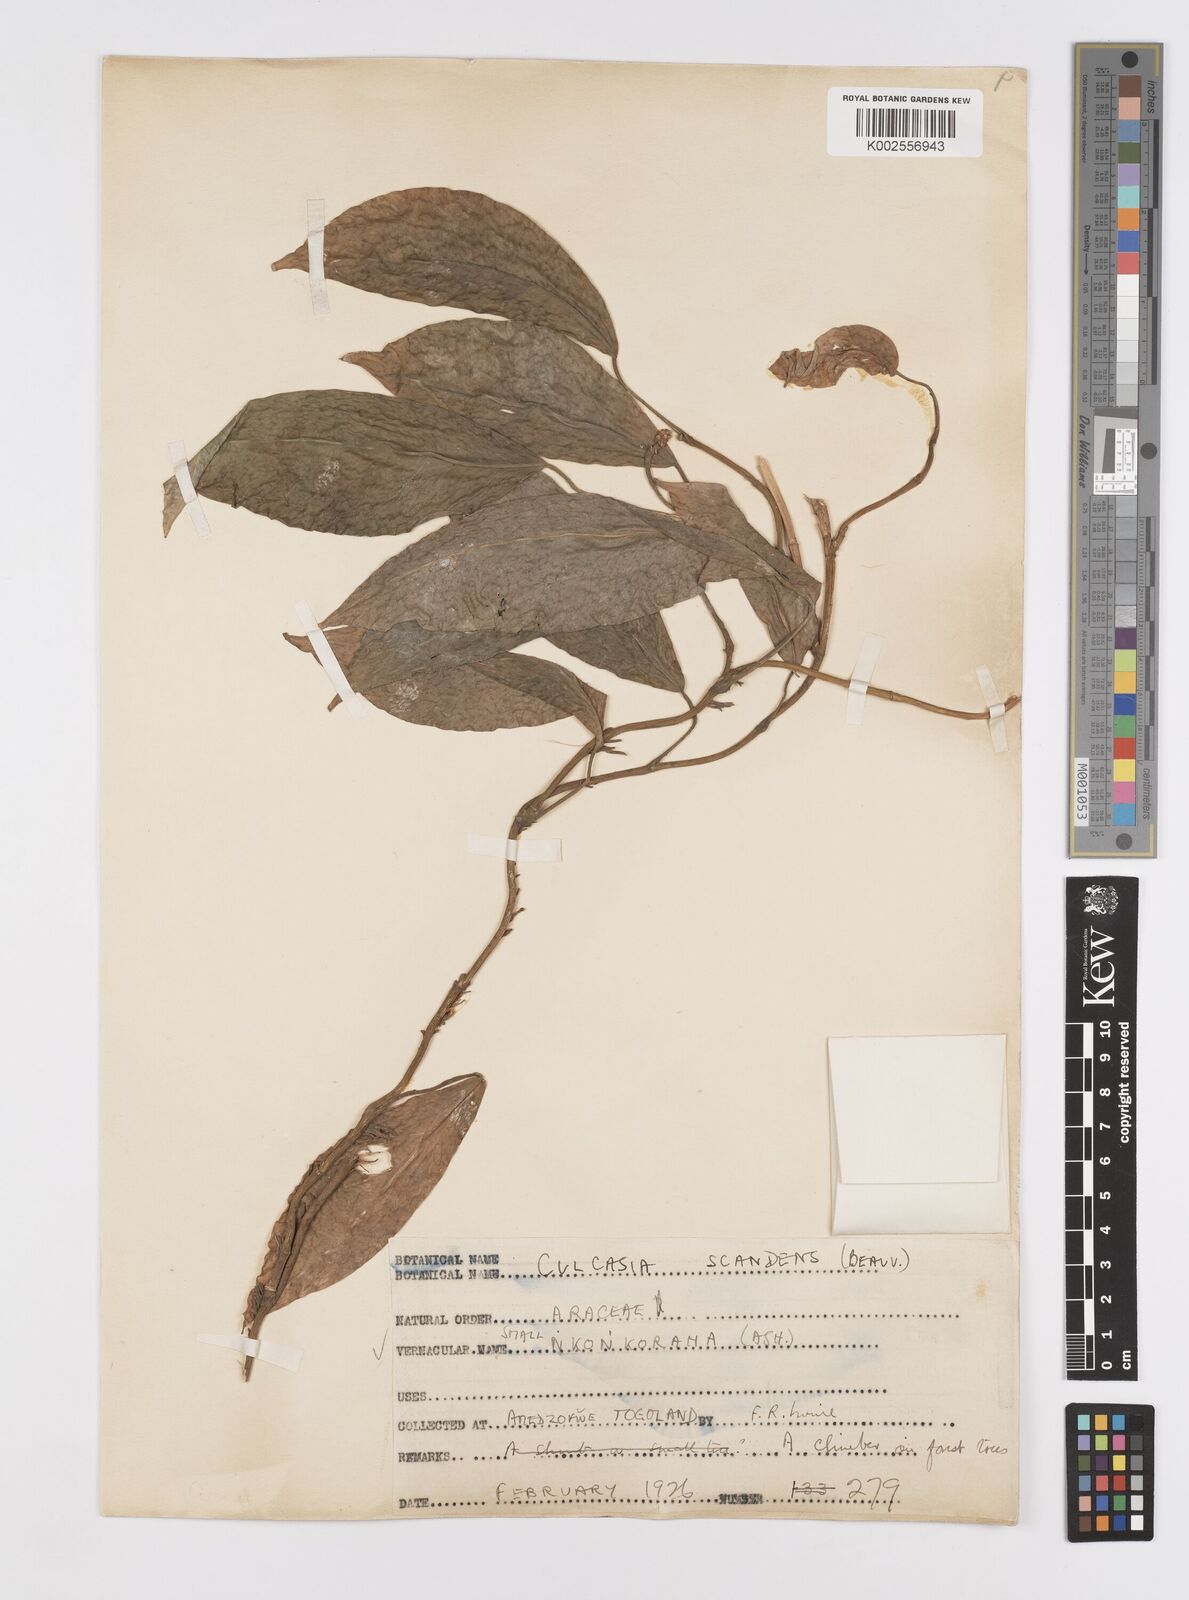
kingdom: Plantae
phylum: Tracheophyta
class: Liliopsida
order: Alismatales
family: Araceae
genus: Culcasia
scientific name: Culcasia scandens
